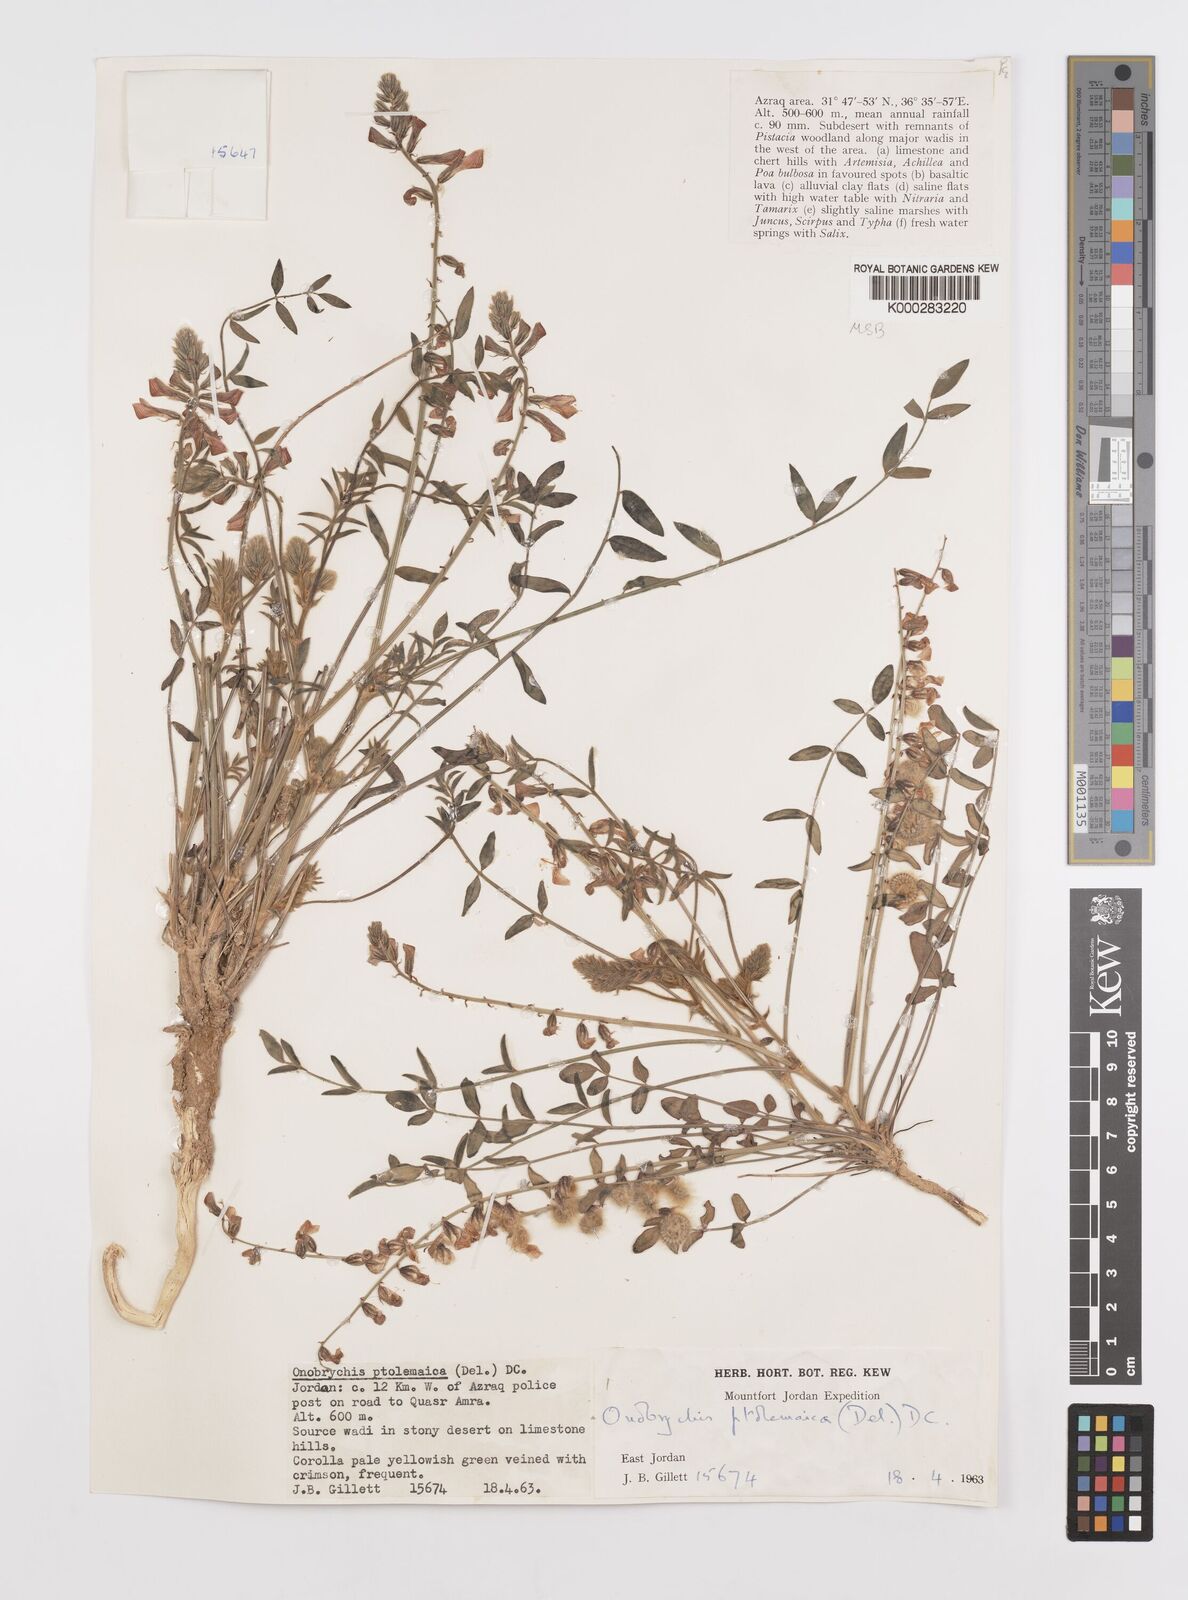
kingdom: Plantae
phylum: Tracheophyta
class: Magnoliopsida
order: Fabales
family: Fabaceae
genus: Onobrychis
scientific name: Onobrychis ptolemaica
